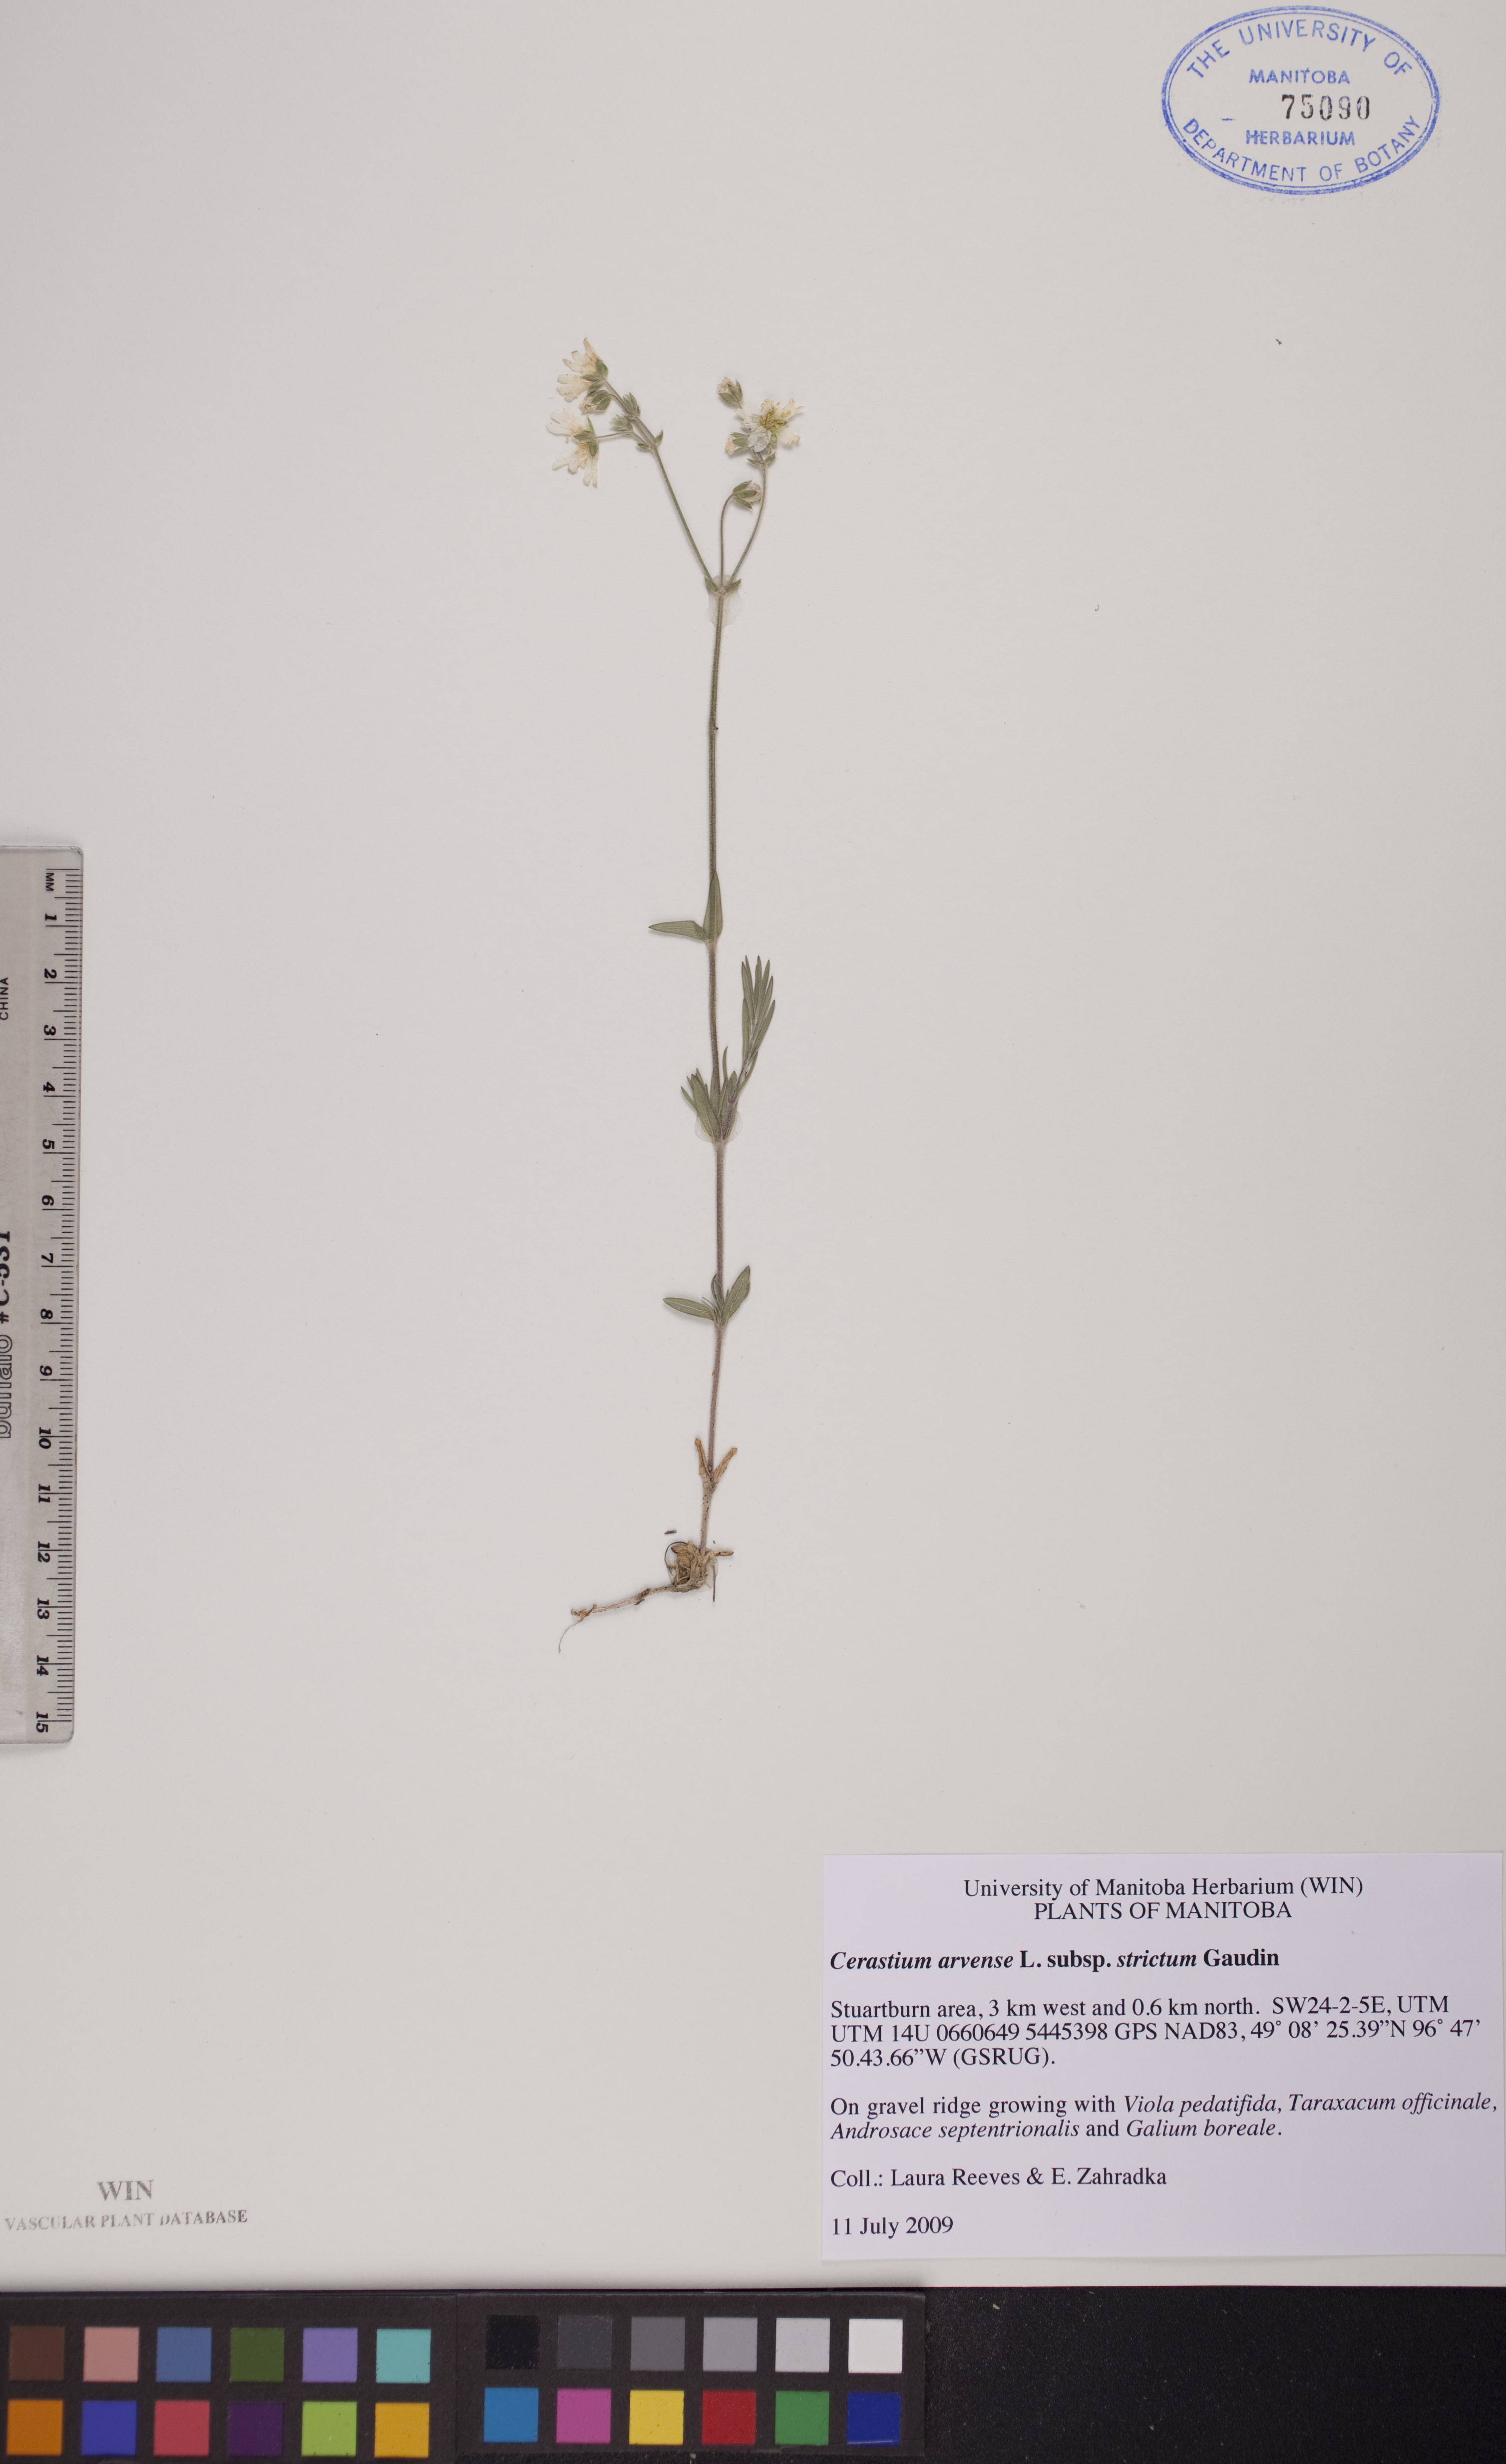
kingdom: Plantae
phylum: Tracheophyta
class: Magnoliopsida
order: Caryophyllales
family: Caryophyllaceae
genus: Cerastium
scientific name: Cerastium elongatum
